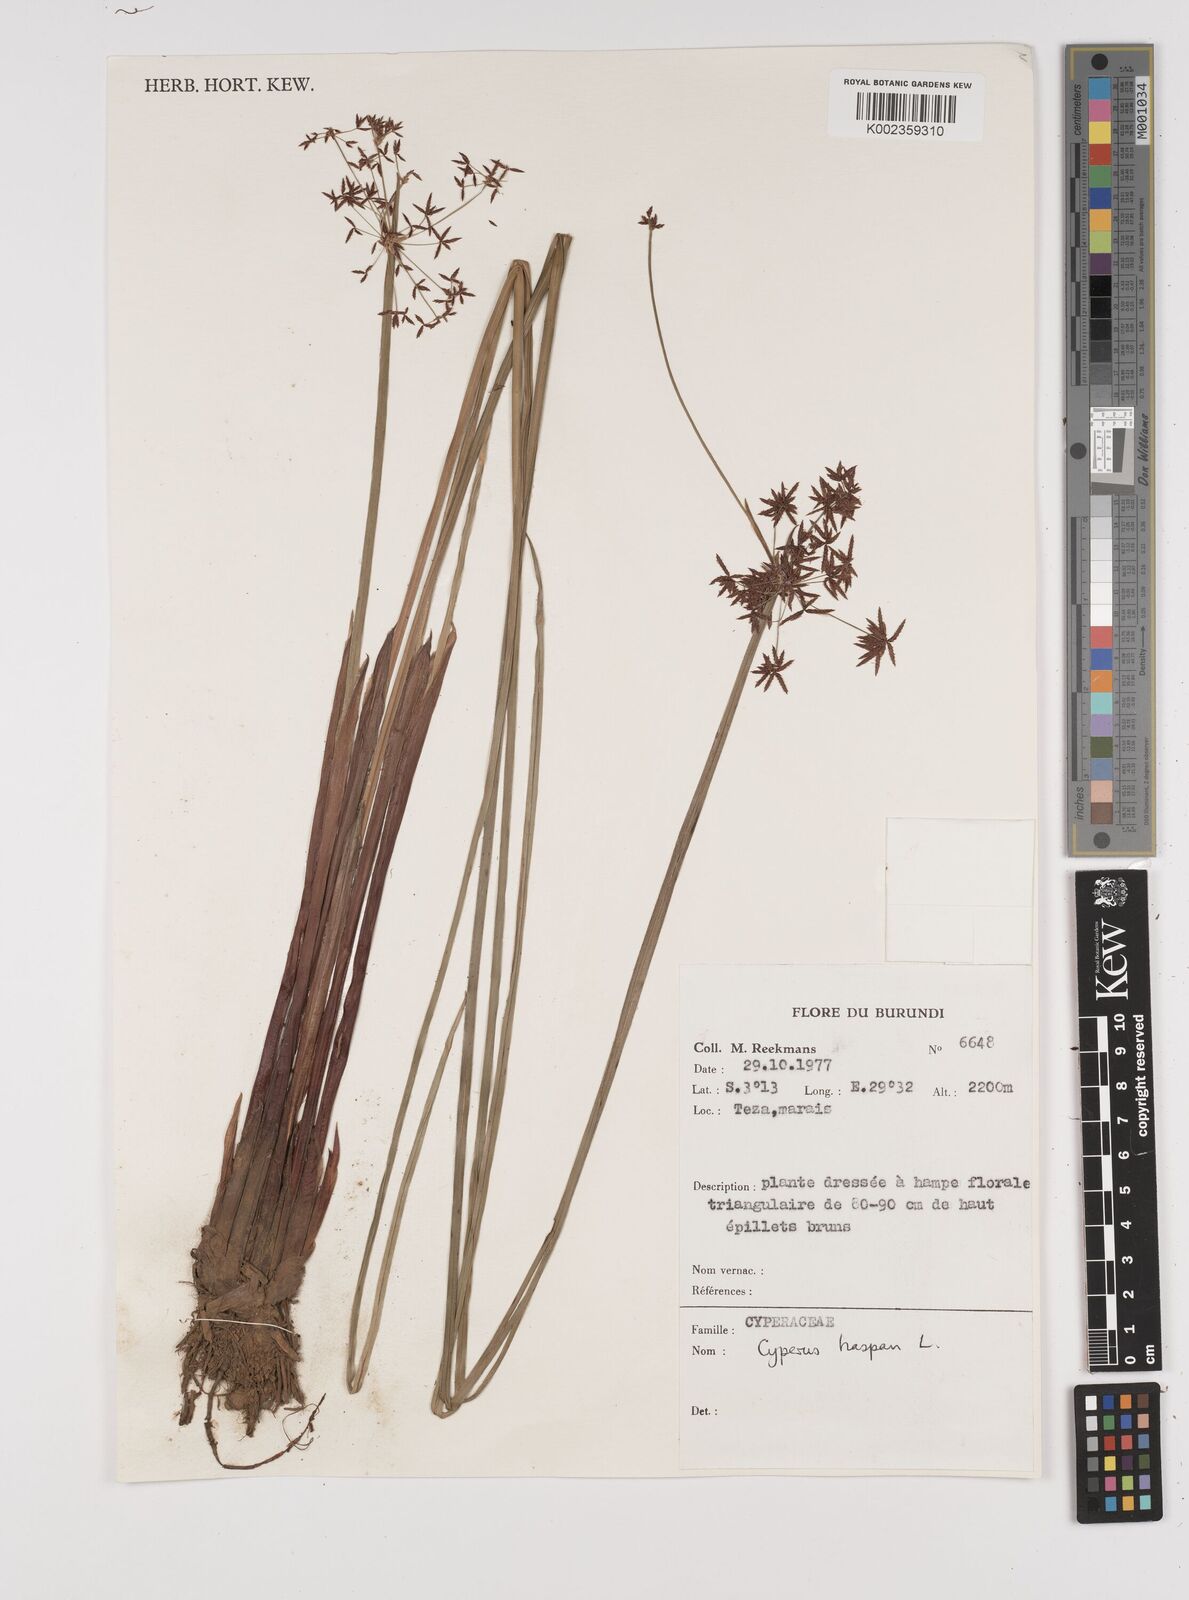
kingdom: Plantae
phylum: Tracheophyta
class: Liliopsida
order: Poales
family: Cyperaceae
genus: Cyperus
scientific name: Cyperus haspan
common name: Haspan flatsedge
